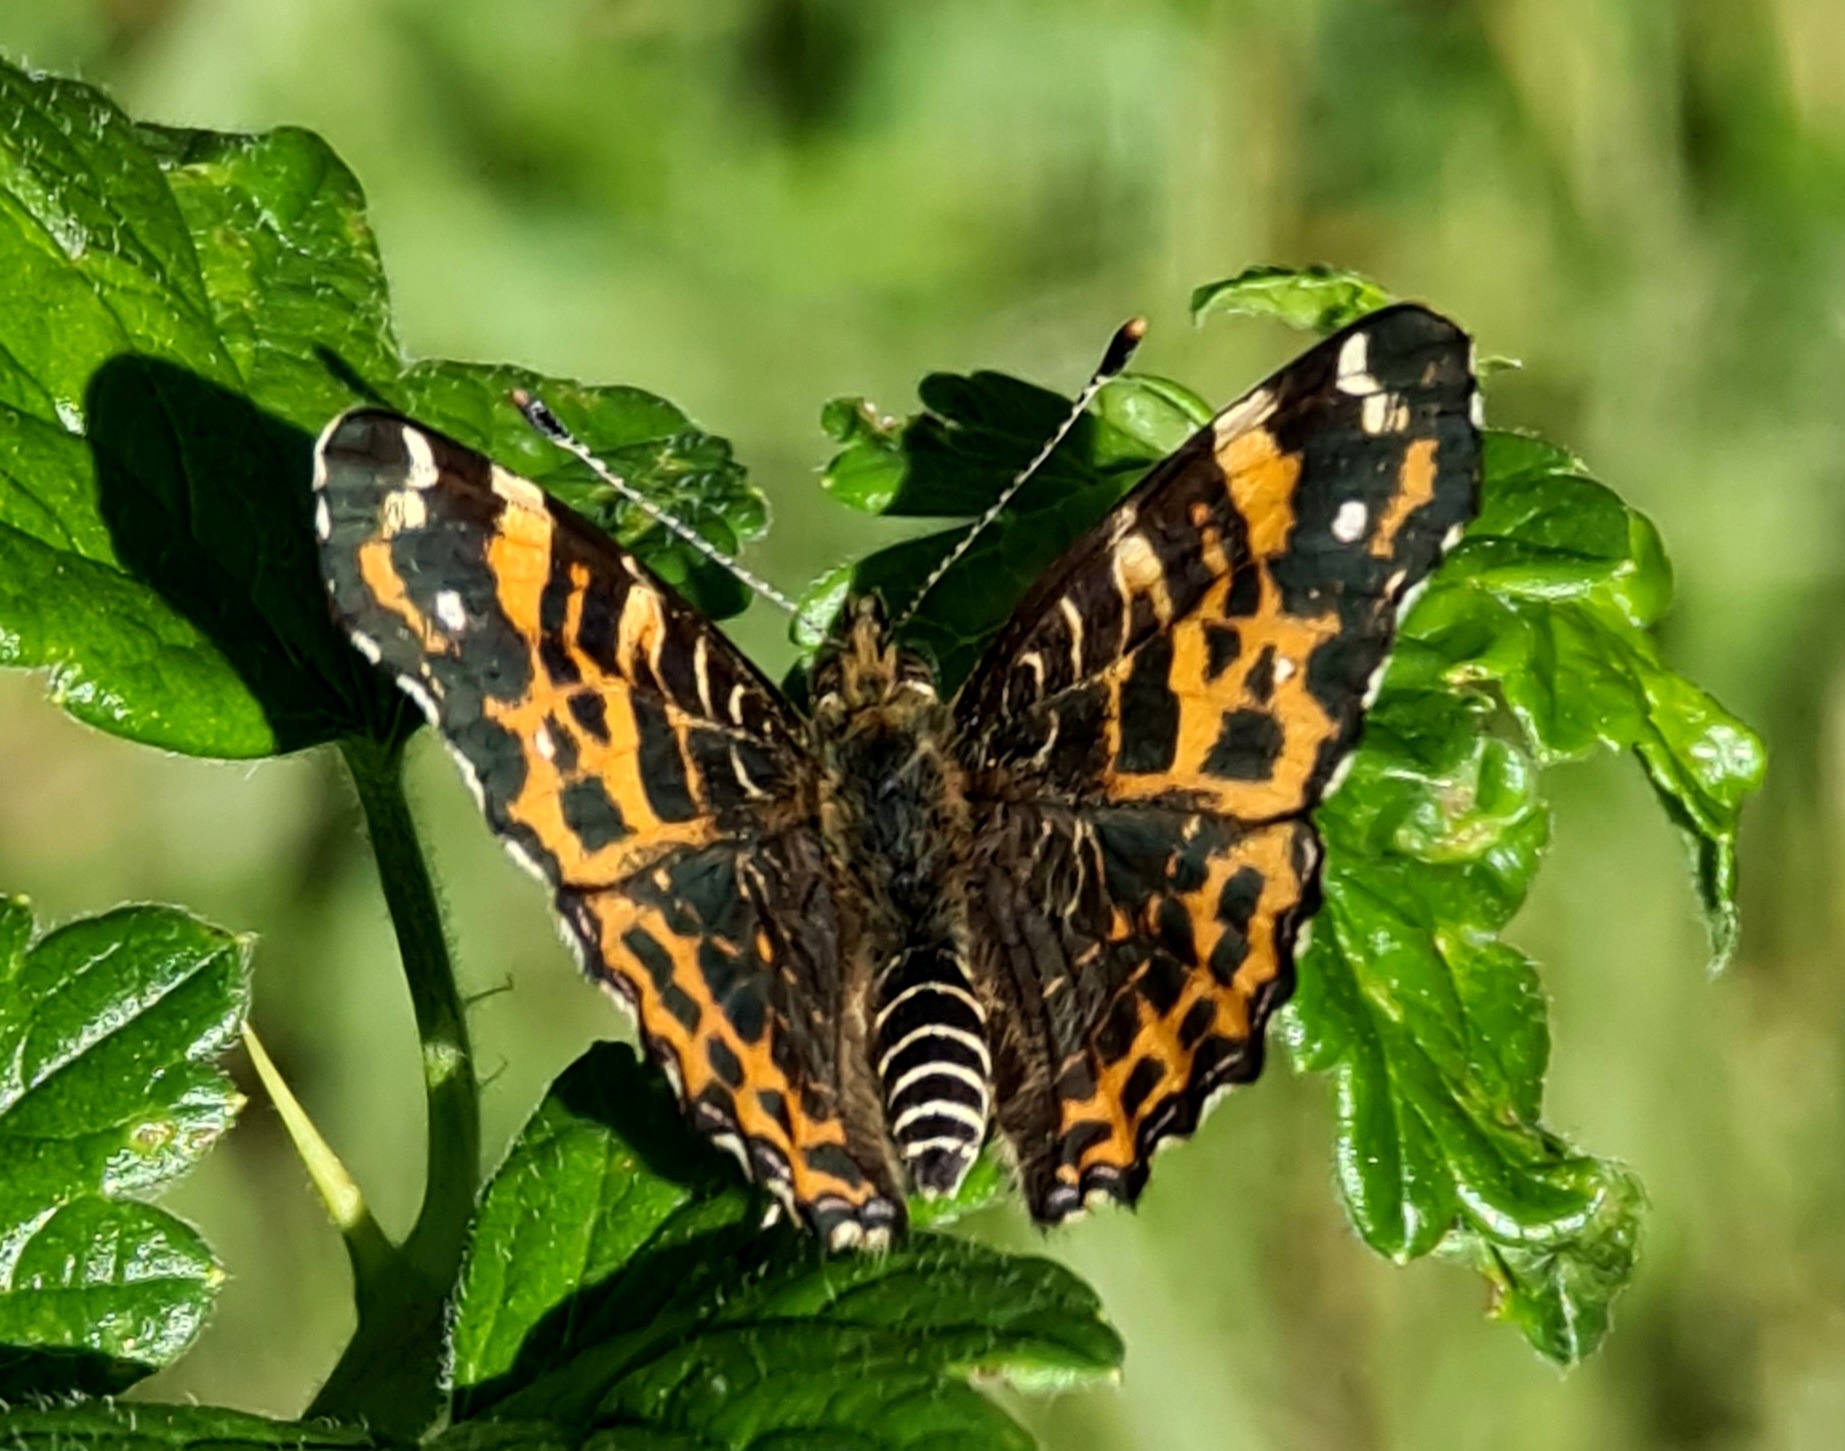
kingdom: Animalia
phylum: Arthropoda
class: Insecta
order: Lepidoptera
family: Nymphalidae
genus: Araschnia
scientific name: Araschnia levana
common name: Nældesommerfugl
